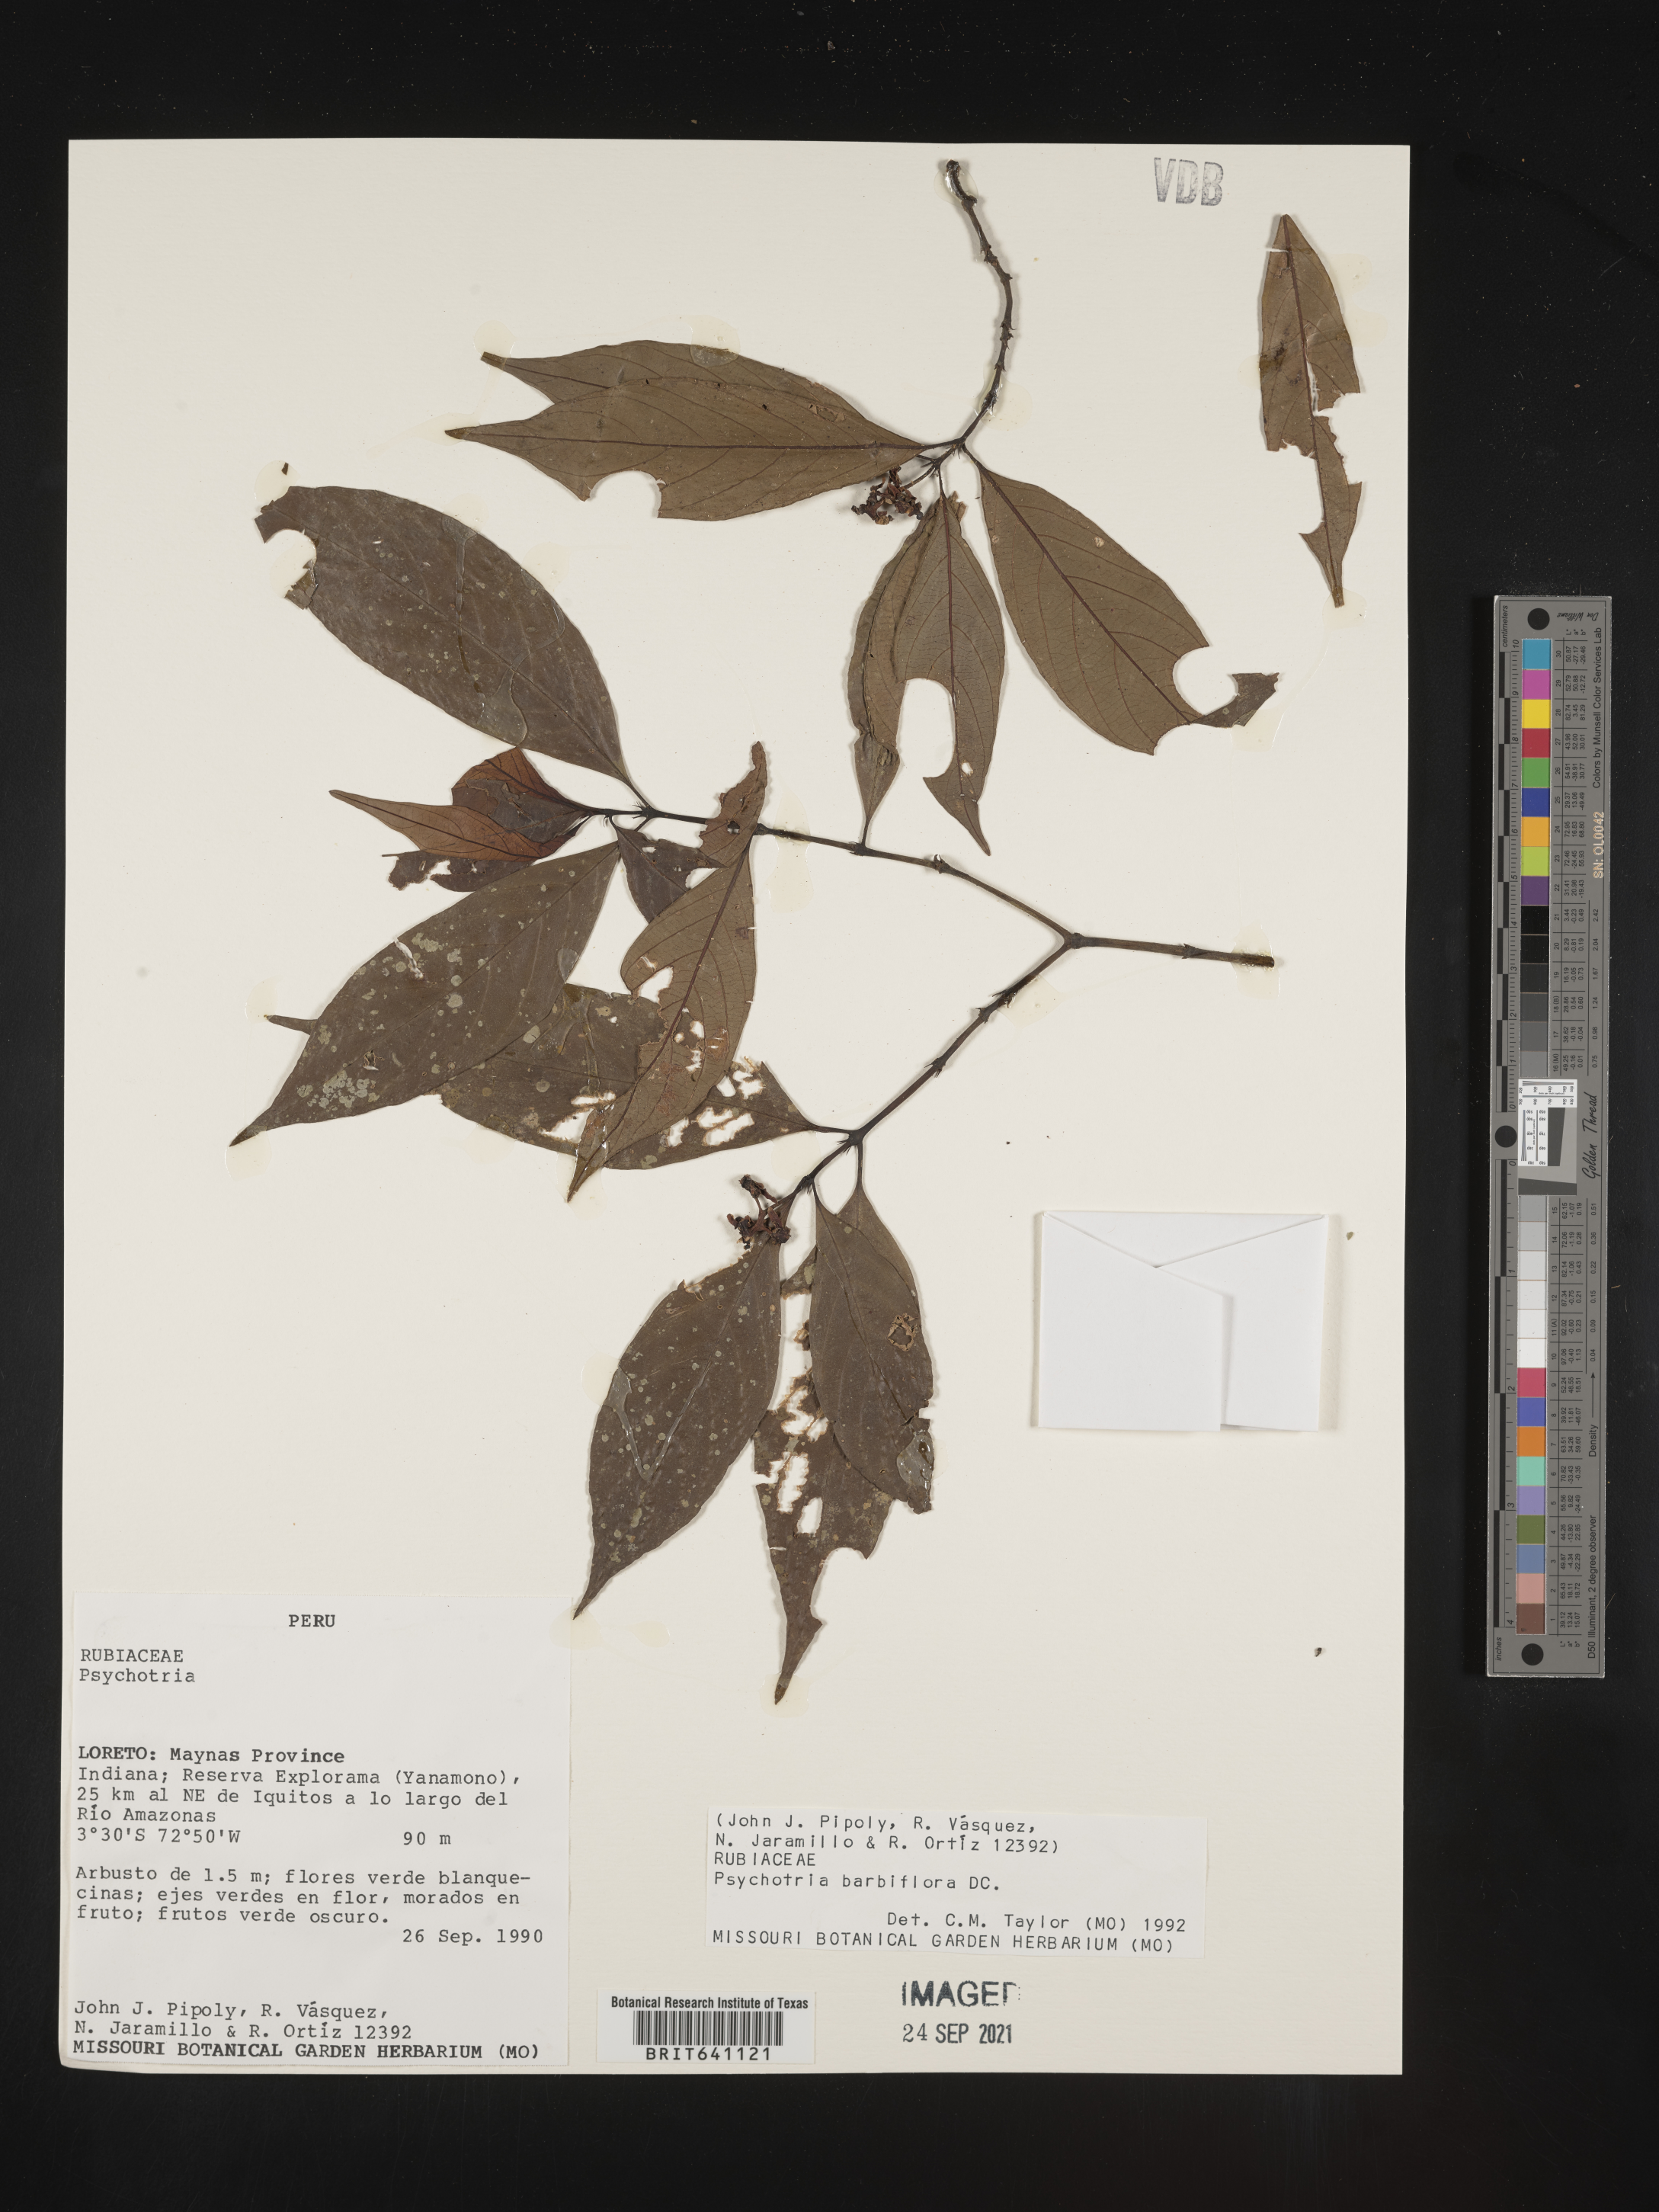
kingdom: Plantae
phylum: Tracheophyta
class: Magnoliopsida
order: Gentianales
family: Rubiaceae
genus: Psychotria
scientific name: Psychotria
